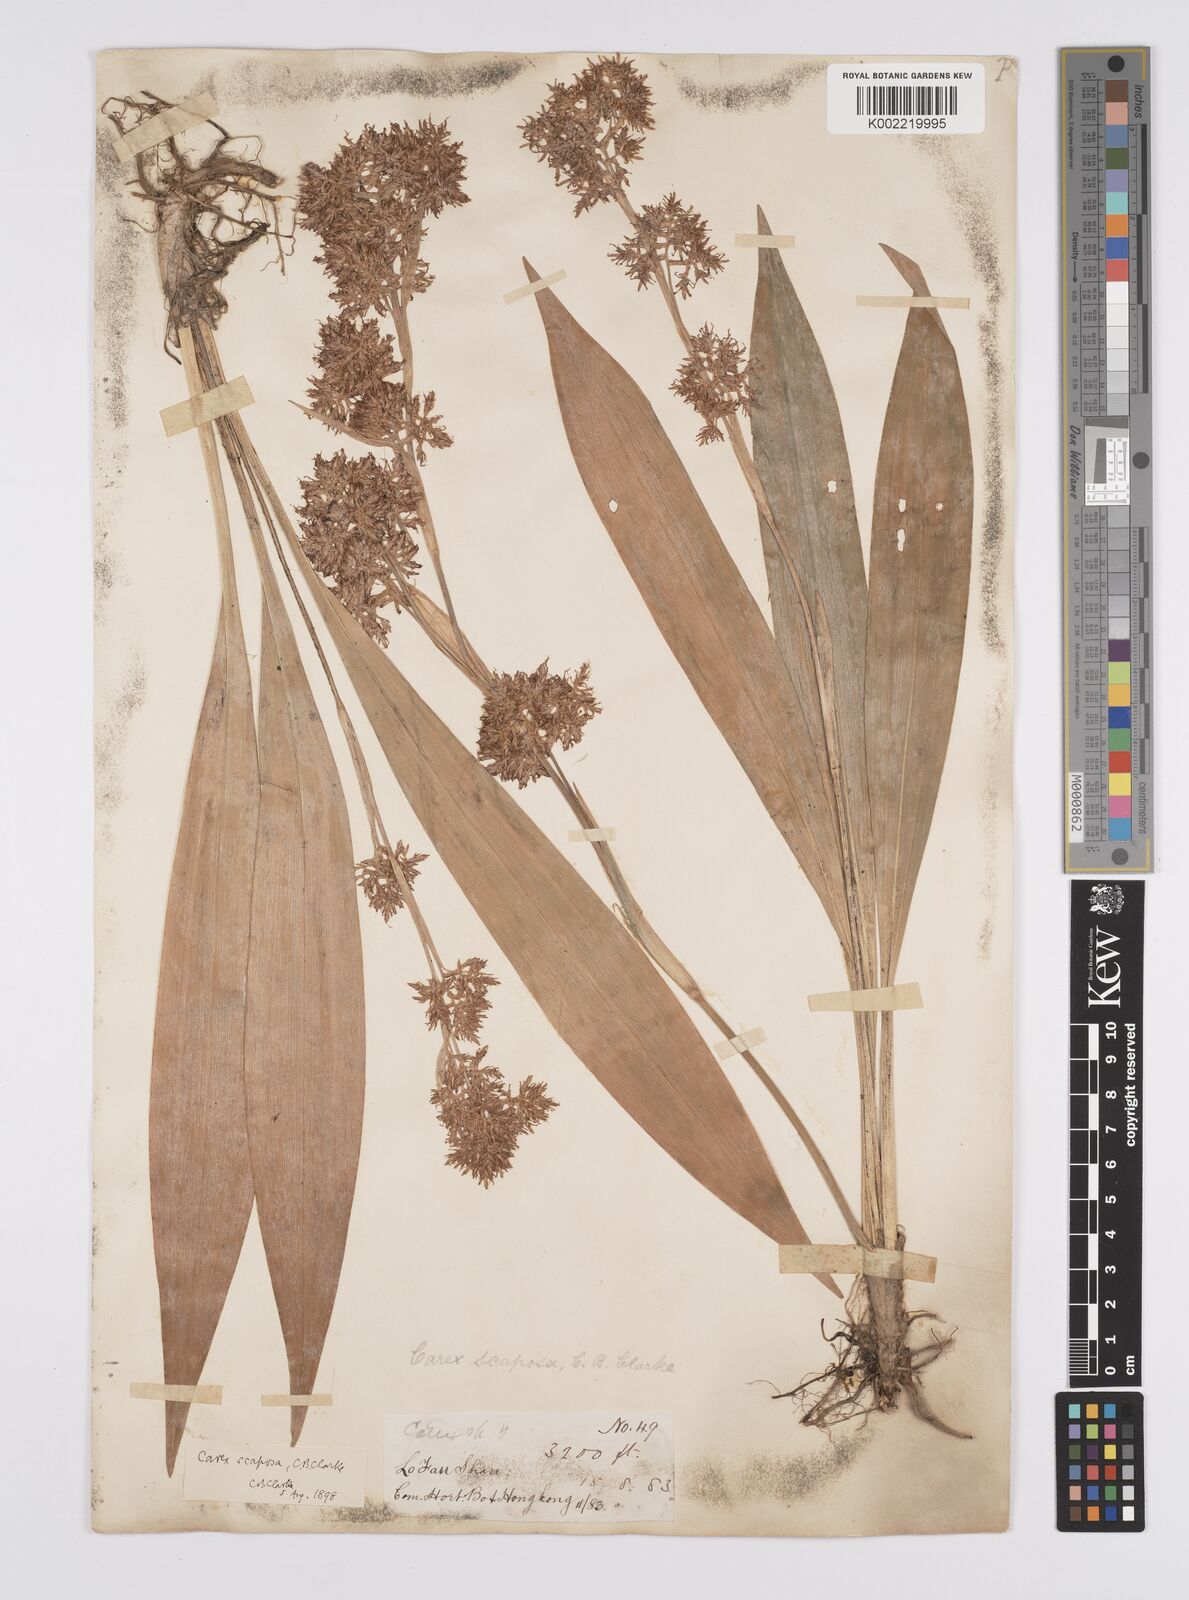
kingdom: Plantae
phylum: Tracheophyta
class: Liliopsida
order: Poales
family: Cyperaceae
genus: Carex
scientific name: Carex scaposa
